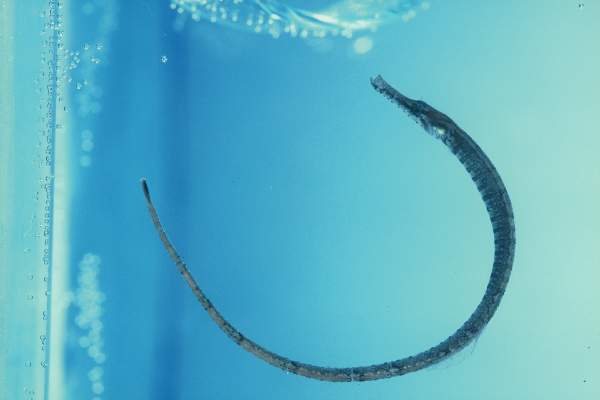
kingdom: Animalia
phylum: Chordata
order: Syngnathiformes
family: Syngnathidae
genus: Hippichthys
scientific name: Hippichthys spicifer
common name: Banded freshwater pipefish
